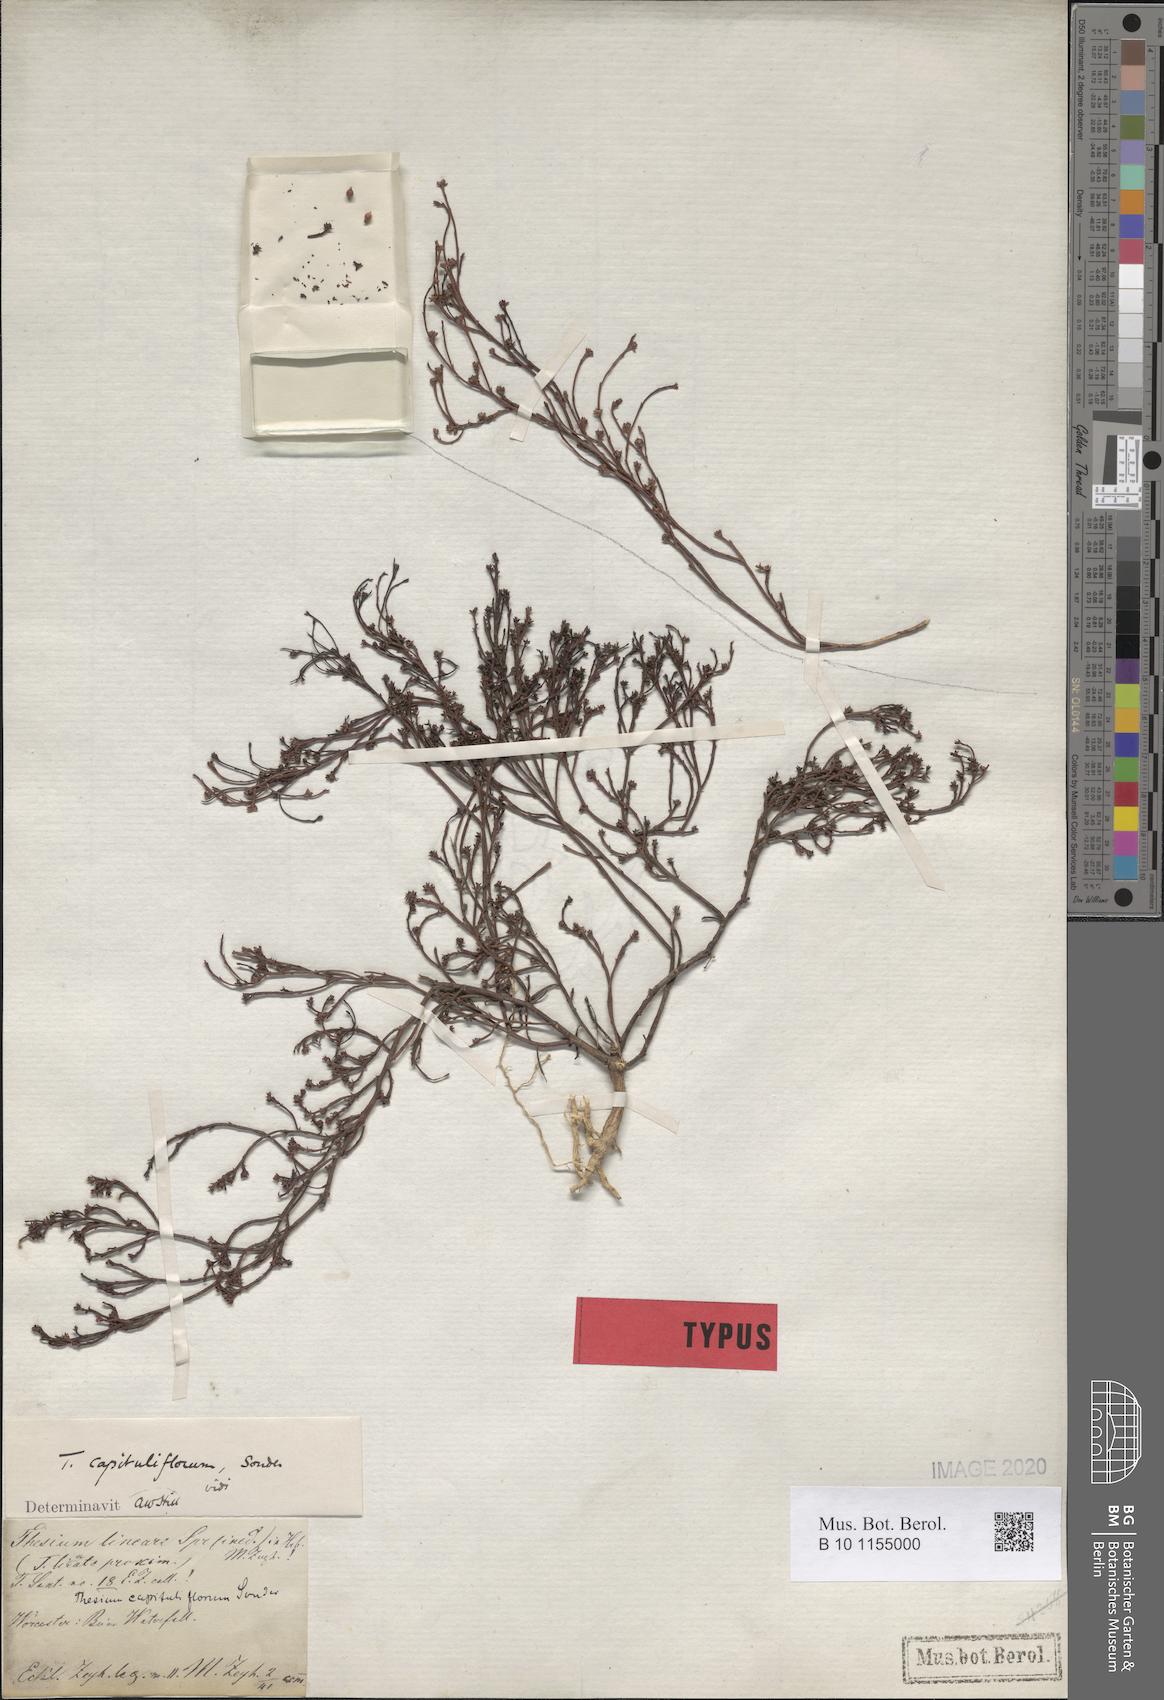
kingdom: Plantae
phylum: Tracheophyta
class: Magnoliopsida
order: Santalales
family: Thesiaceae
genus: Thesium
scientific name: Thesium capituliflorum
